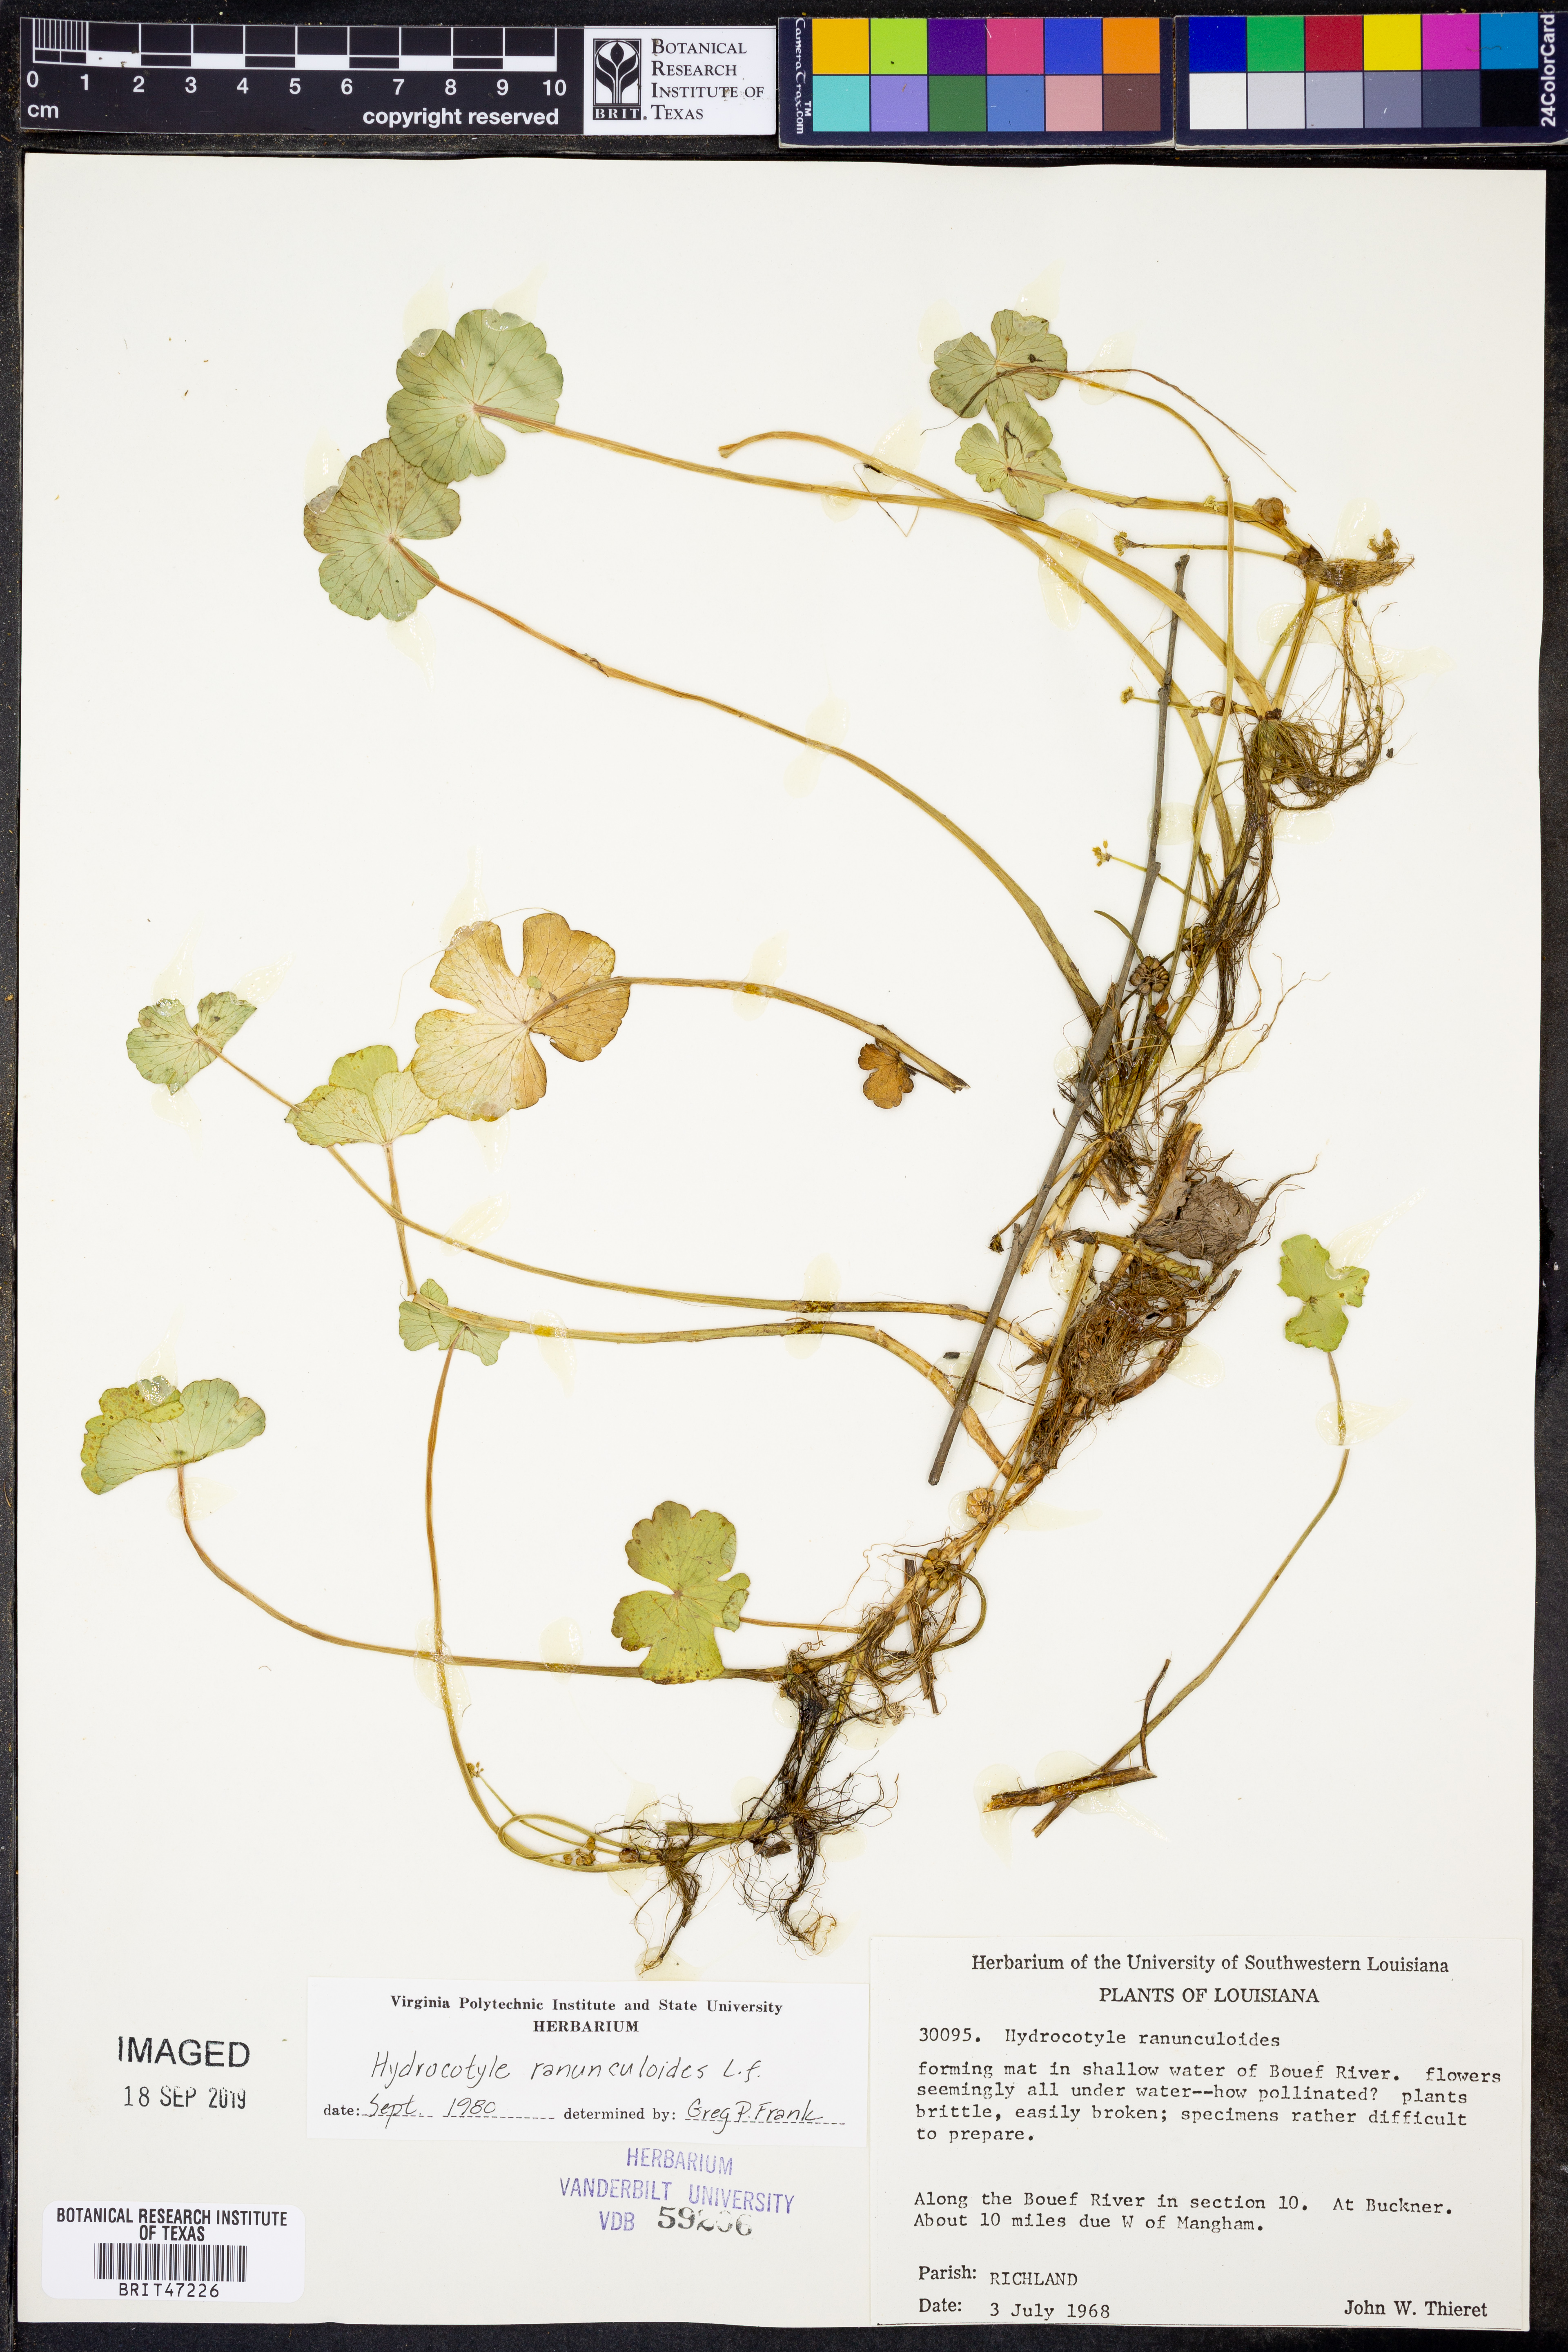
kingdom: Plantae
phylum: Tracheophyta
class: Magnoliopsida
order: Apiales
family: Araliaceae
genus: Hydrocotyle
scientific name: Hydrocotyle ranunculoides
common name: Floating pennywort
